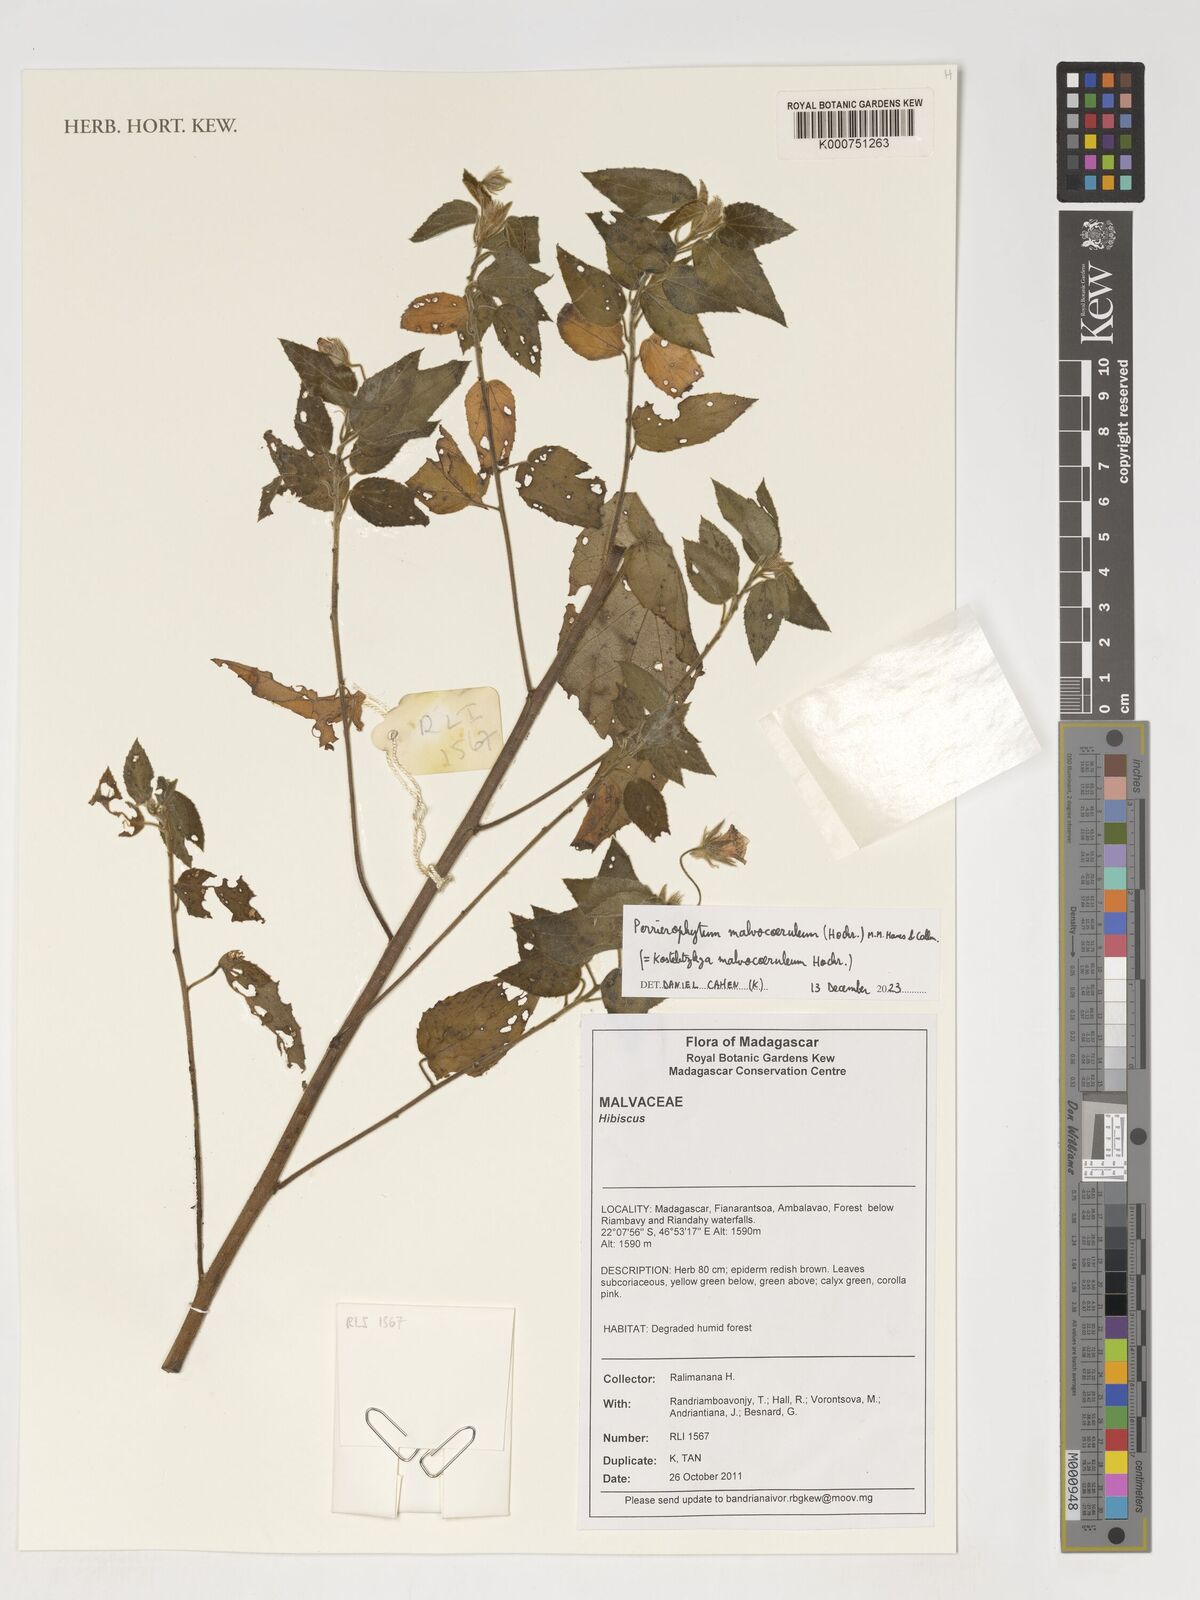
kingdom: Plantae
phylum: Tracheophyta
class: Magnoliopsida
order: Malvales
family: Malvaceae
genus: Hibiscus
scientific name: Hibiscus
